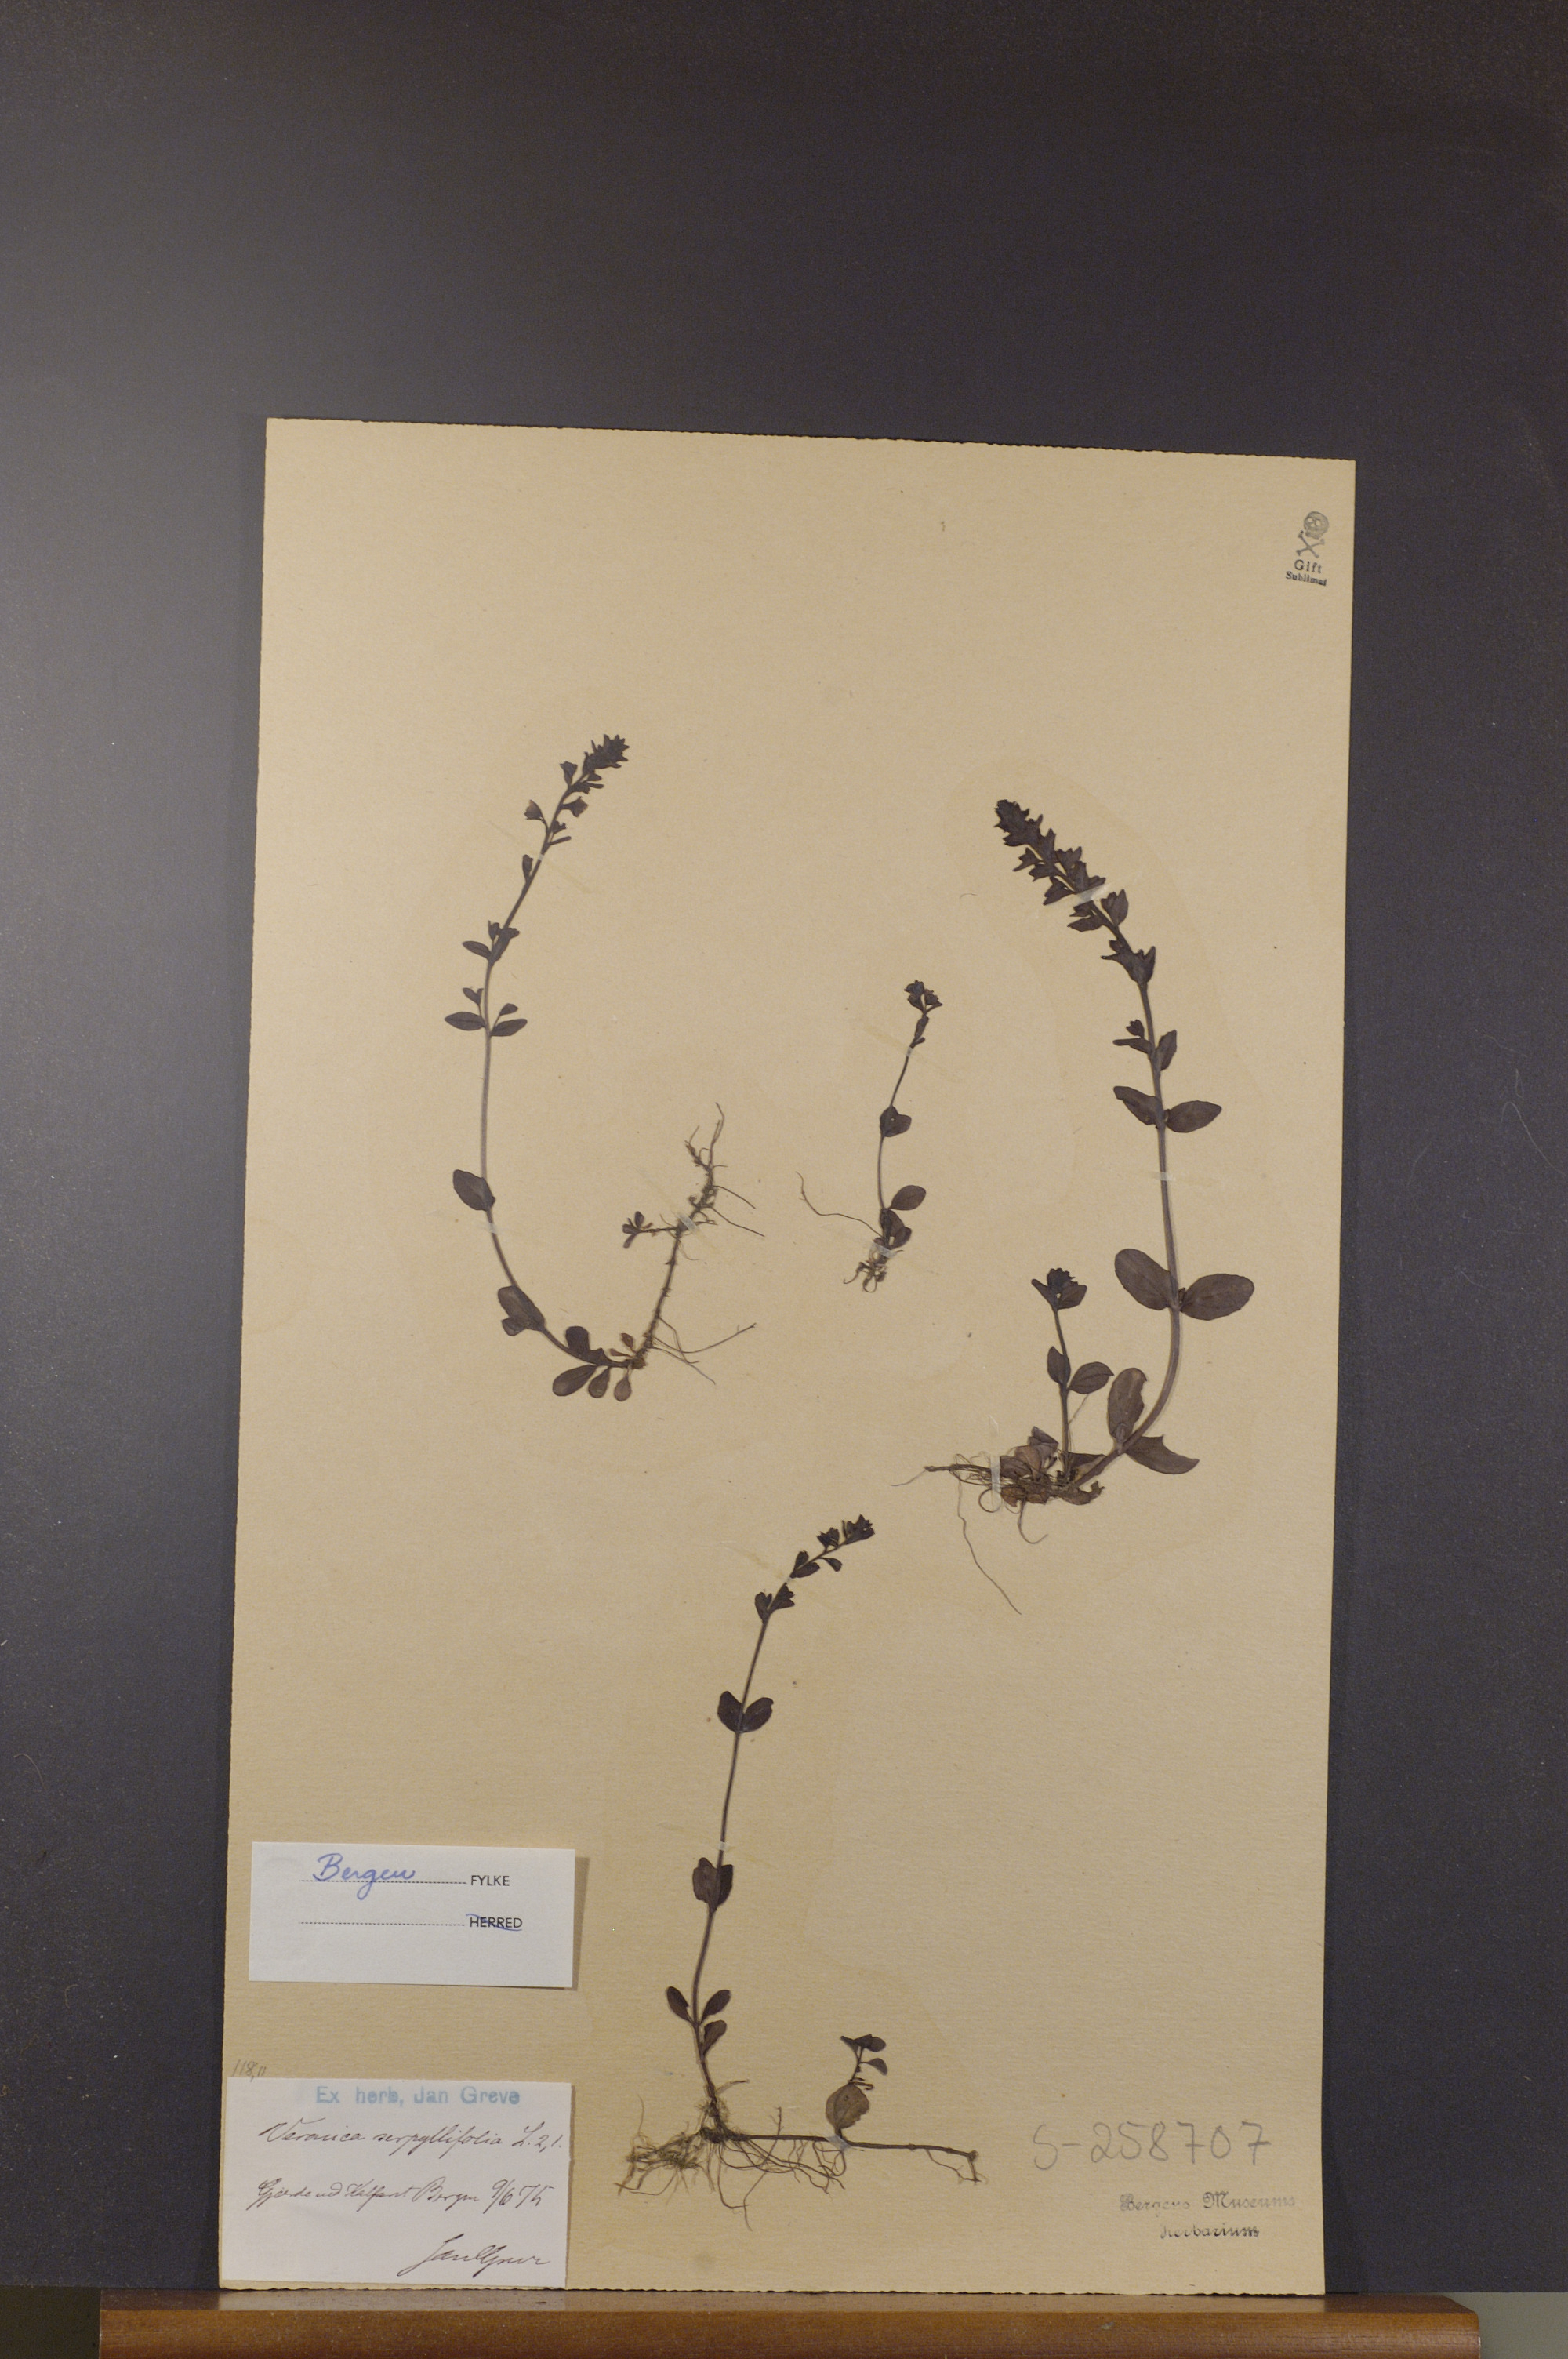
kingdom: Plantae
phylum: Tracheophyta
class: Magnoliopsida
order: Lamiales
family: Plantaginaceae
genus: Veronica
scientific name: Veronica serpyllifolia
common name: Thyme-leaved speedwell
